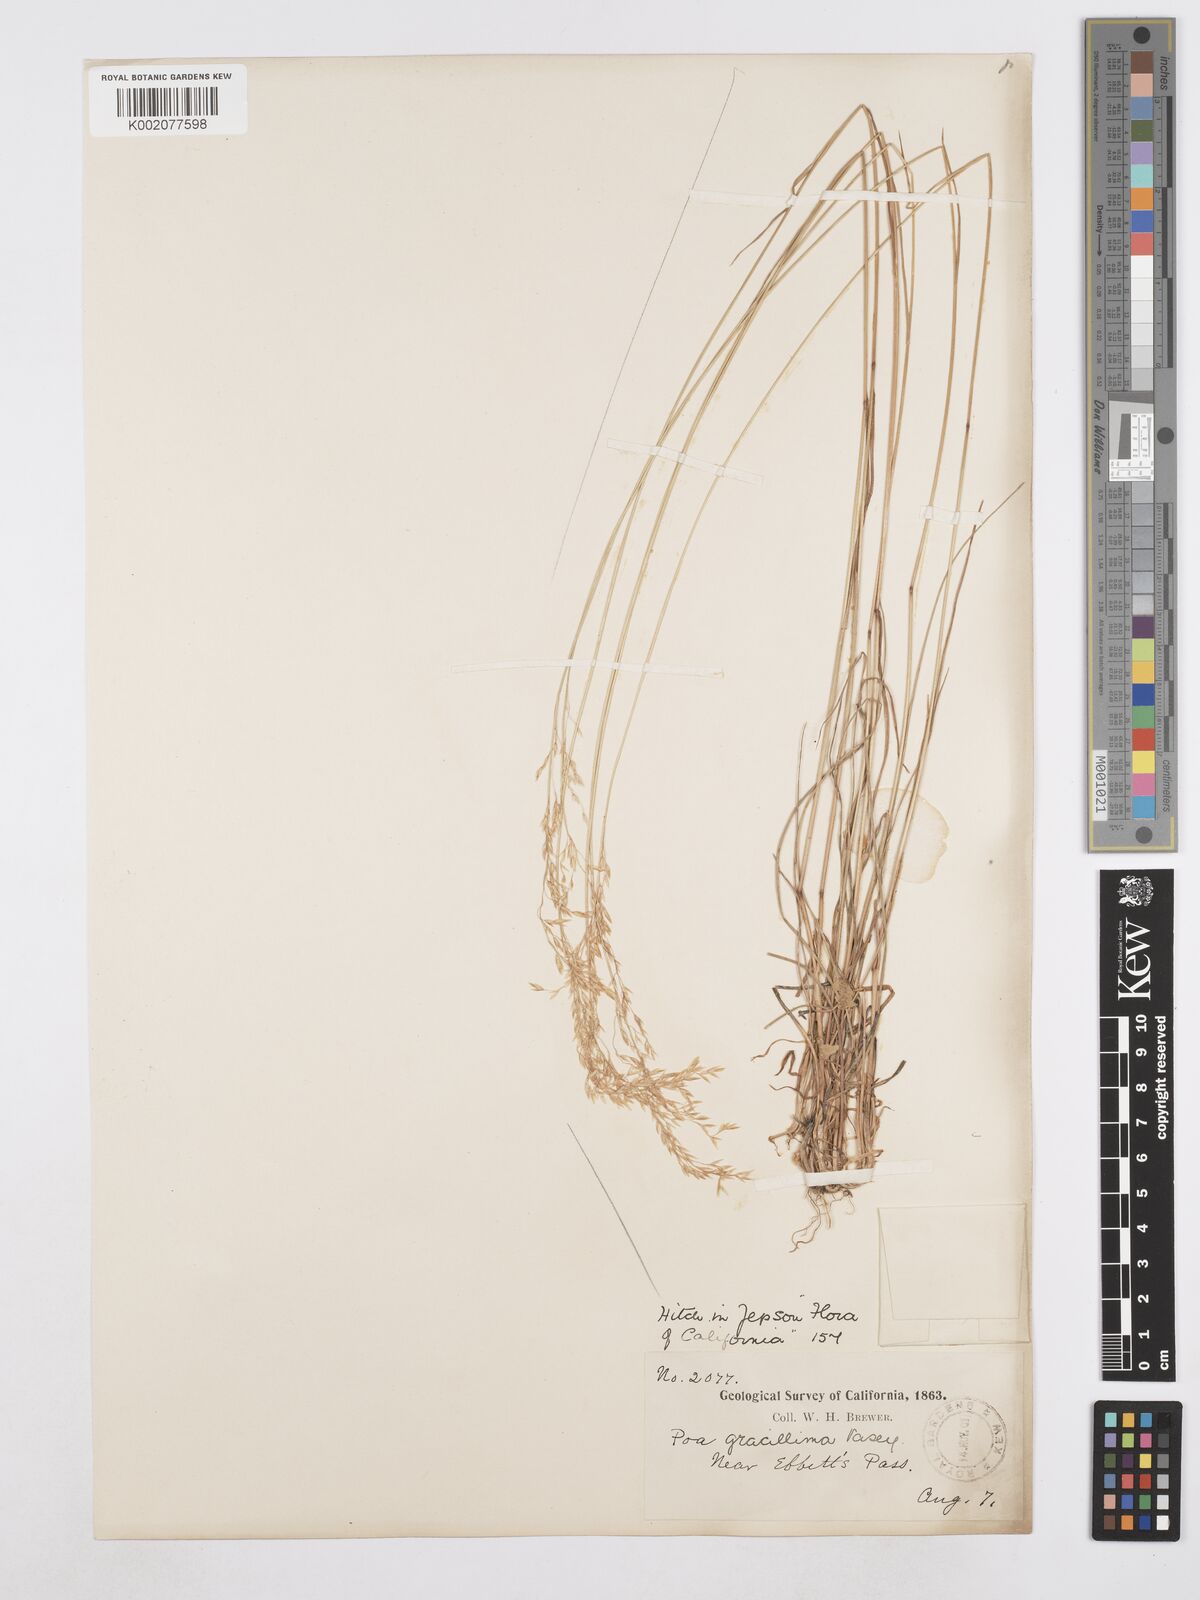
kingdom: Plantae
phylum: Tracheophyta
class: Liliopsida
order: Poales
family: Poaceae
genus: Poa
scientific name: Poa secunda
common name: Sandberg bluegrass
